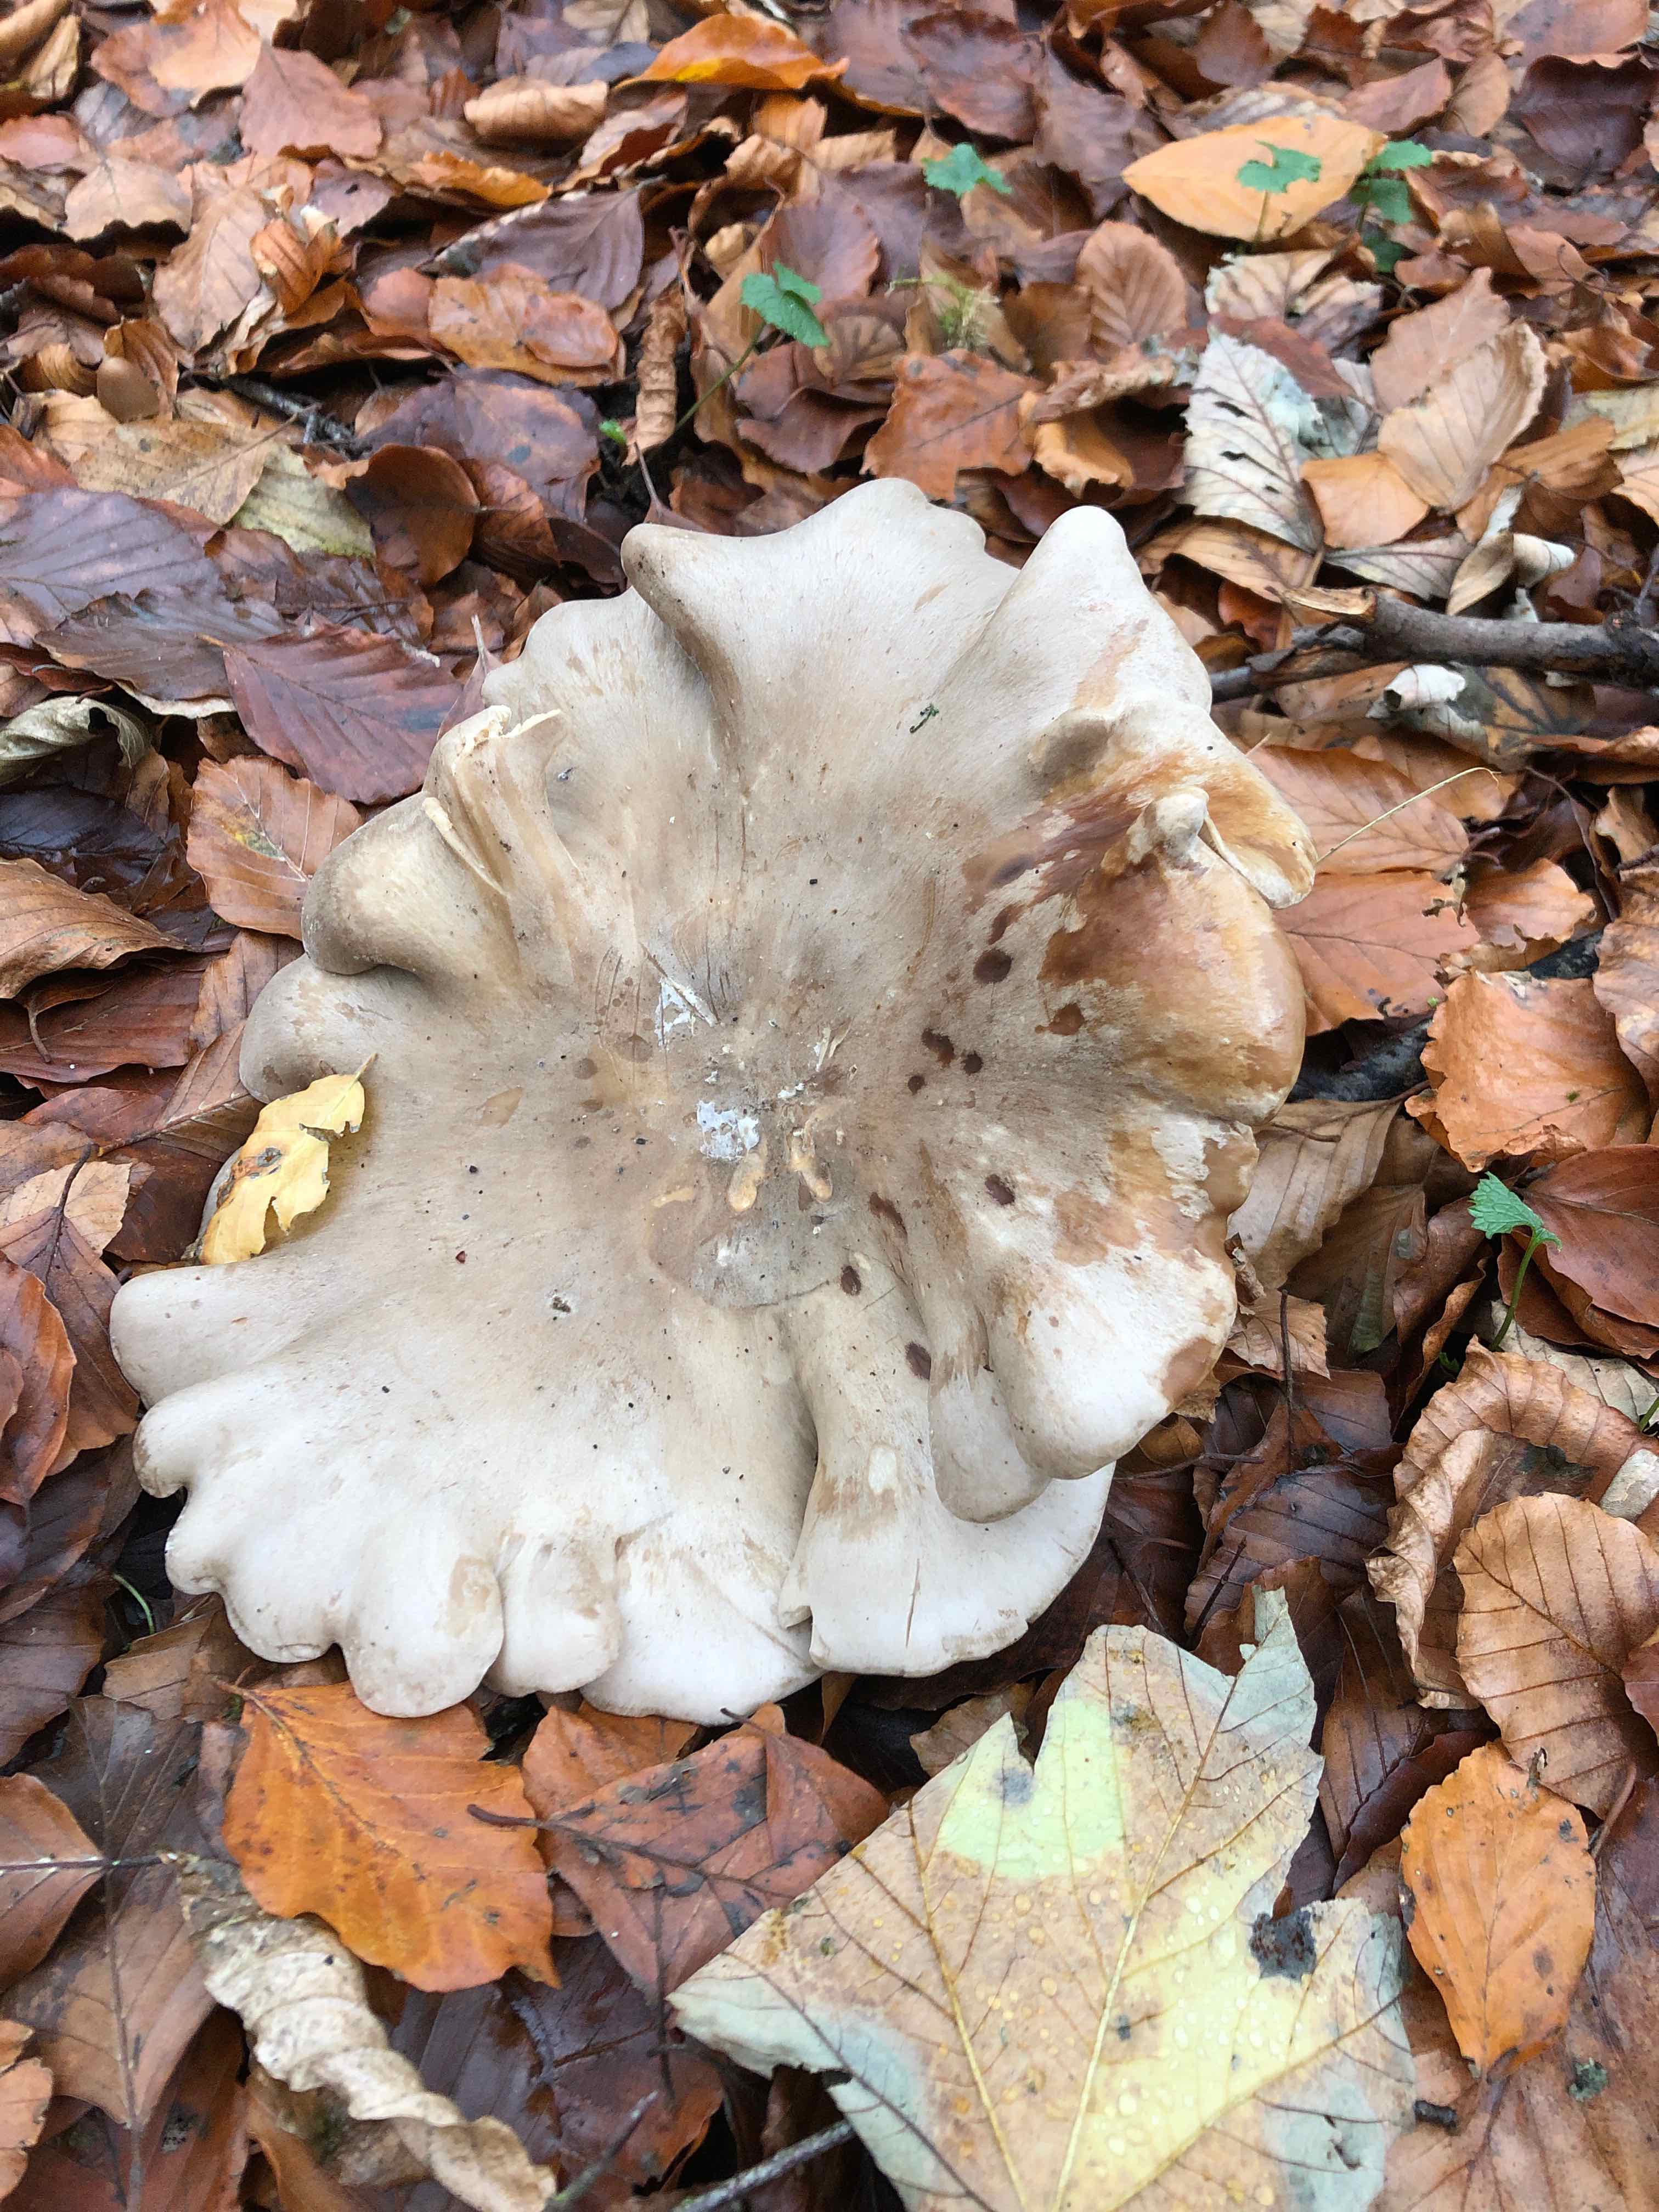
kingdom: Fungi
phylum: Basidiomycota
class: Agaricomycetes
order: Agaricales
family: Tricholomataceae
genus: Clitocybe
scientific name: Clitocybe nebularis
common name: tåge-tragthat
